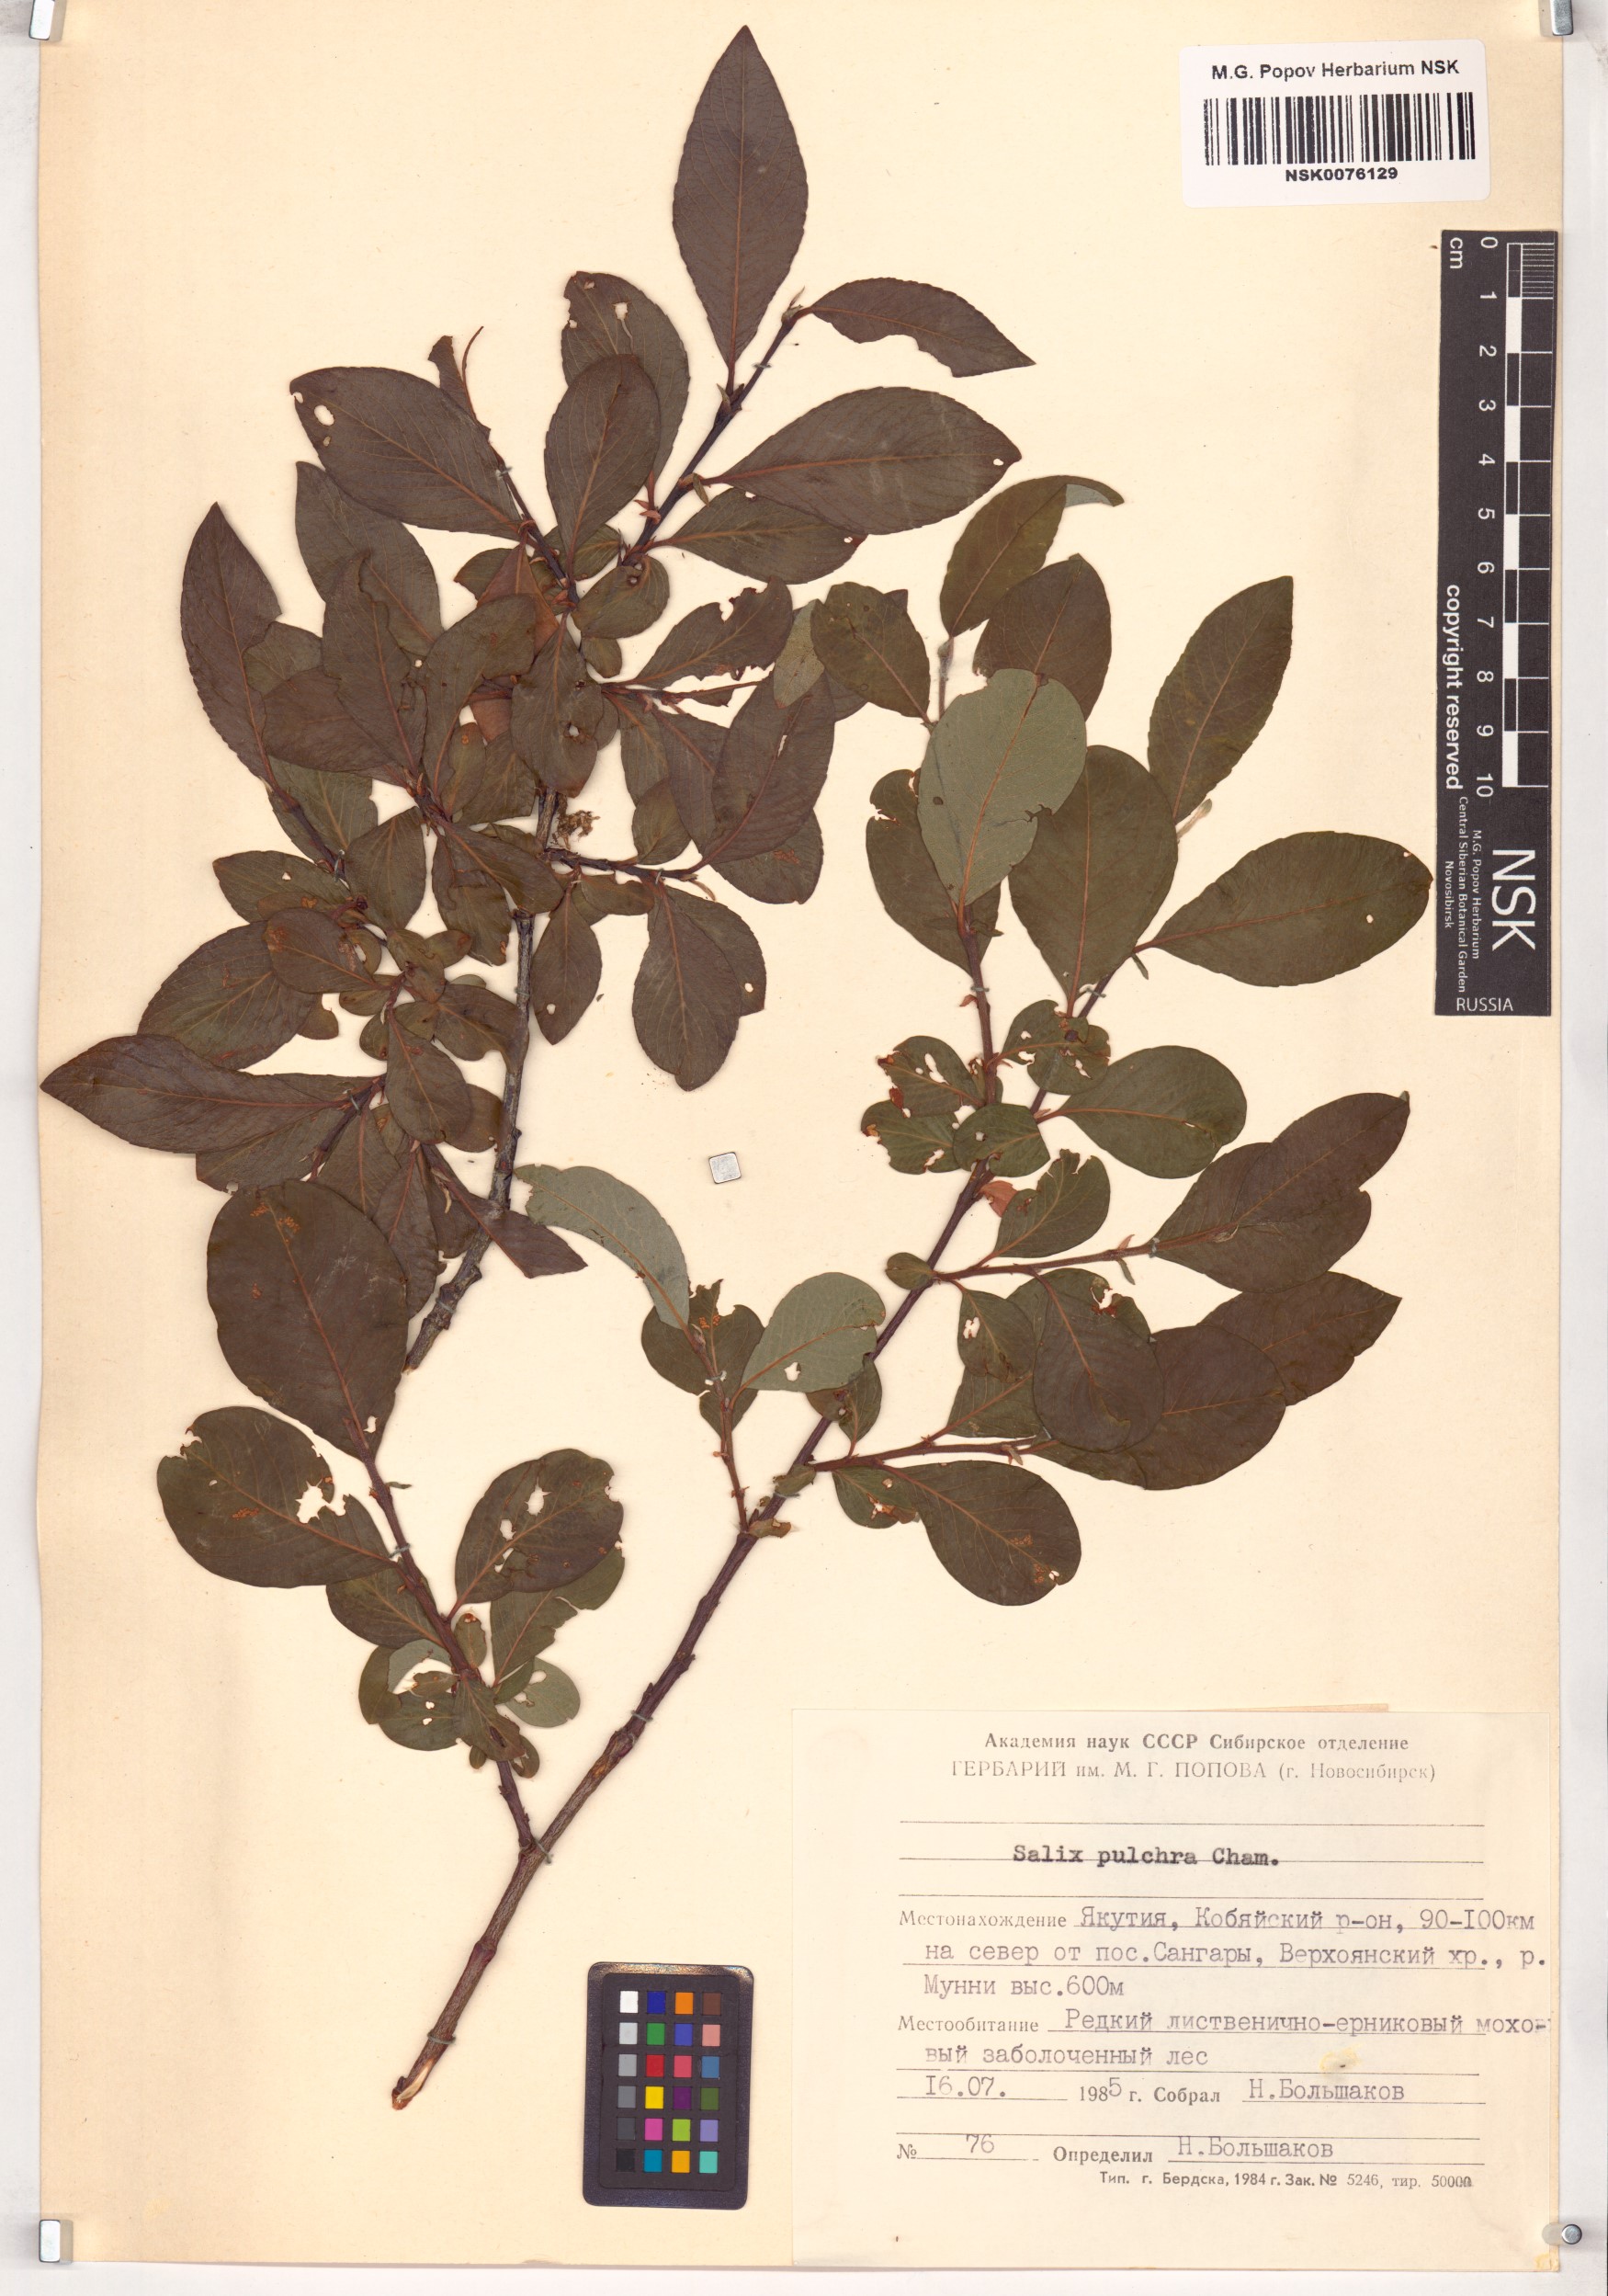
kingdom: Plantae
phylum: Tracheophyta
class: Magnoliopsida
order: Malpighiales
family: Salicaceae
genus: Salix
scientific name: Salix pulchra
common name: Diamond-leaved willow
